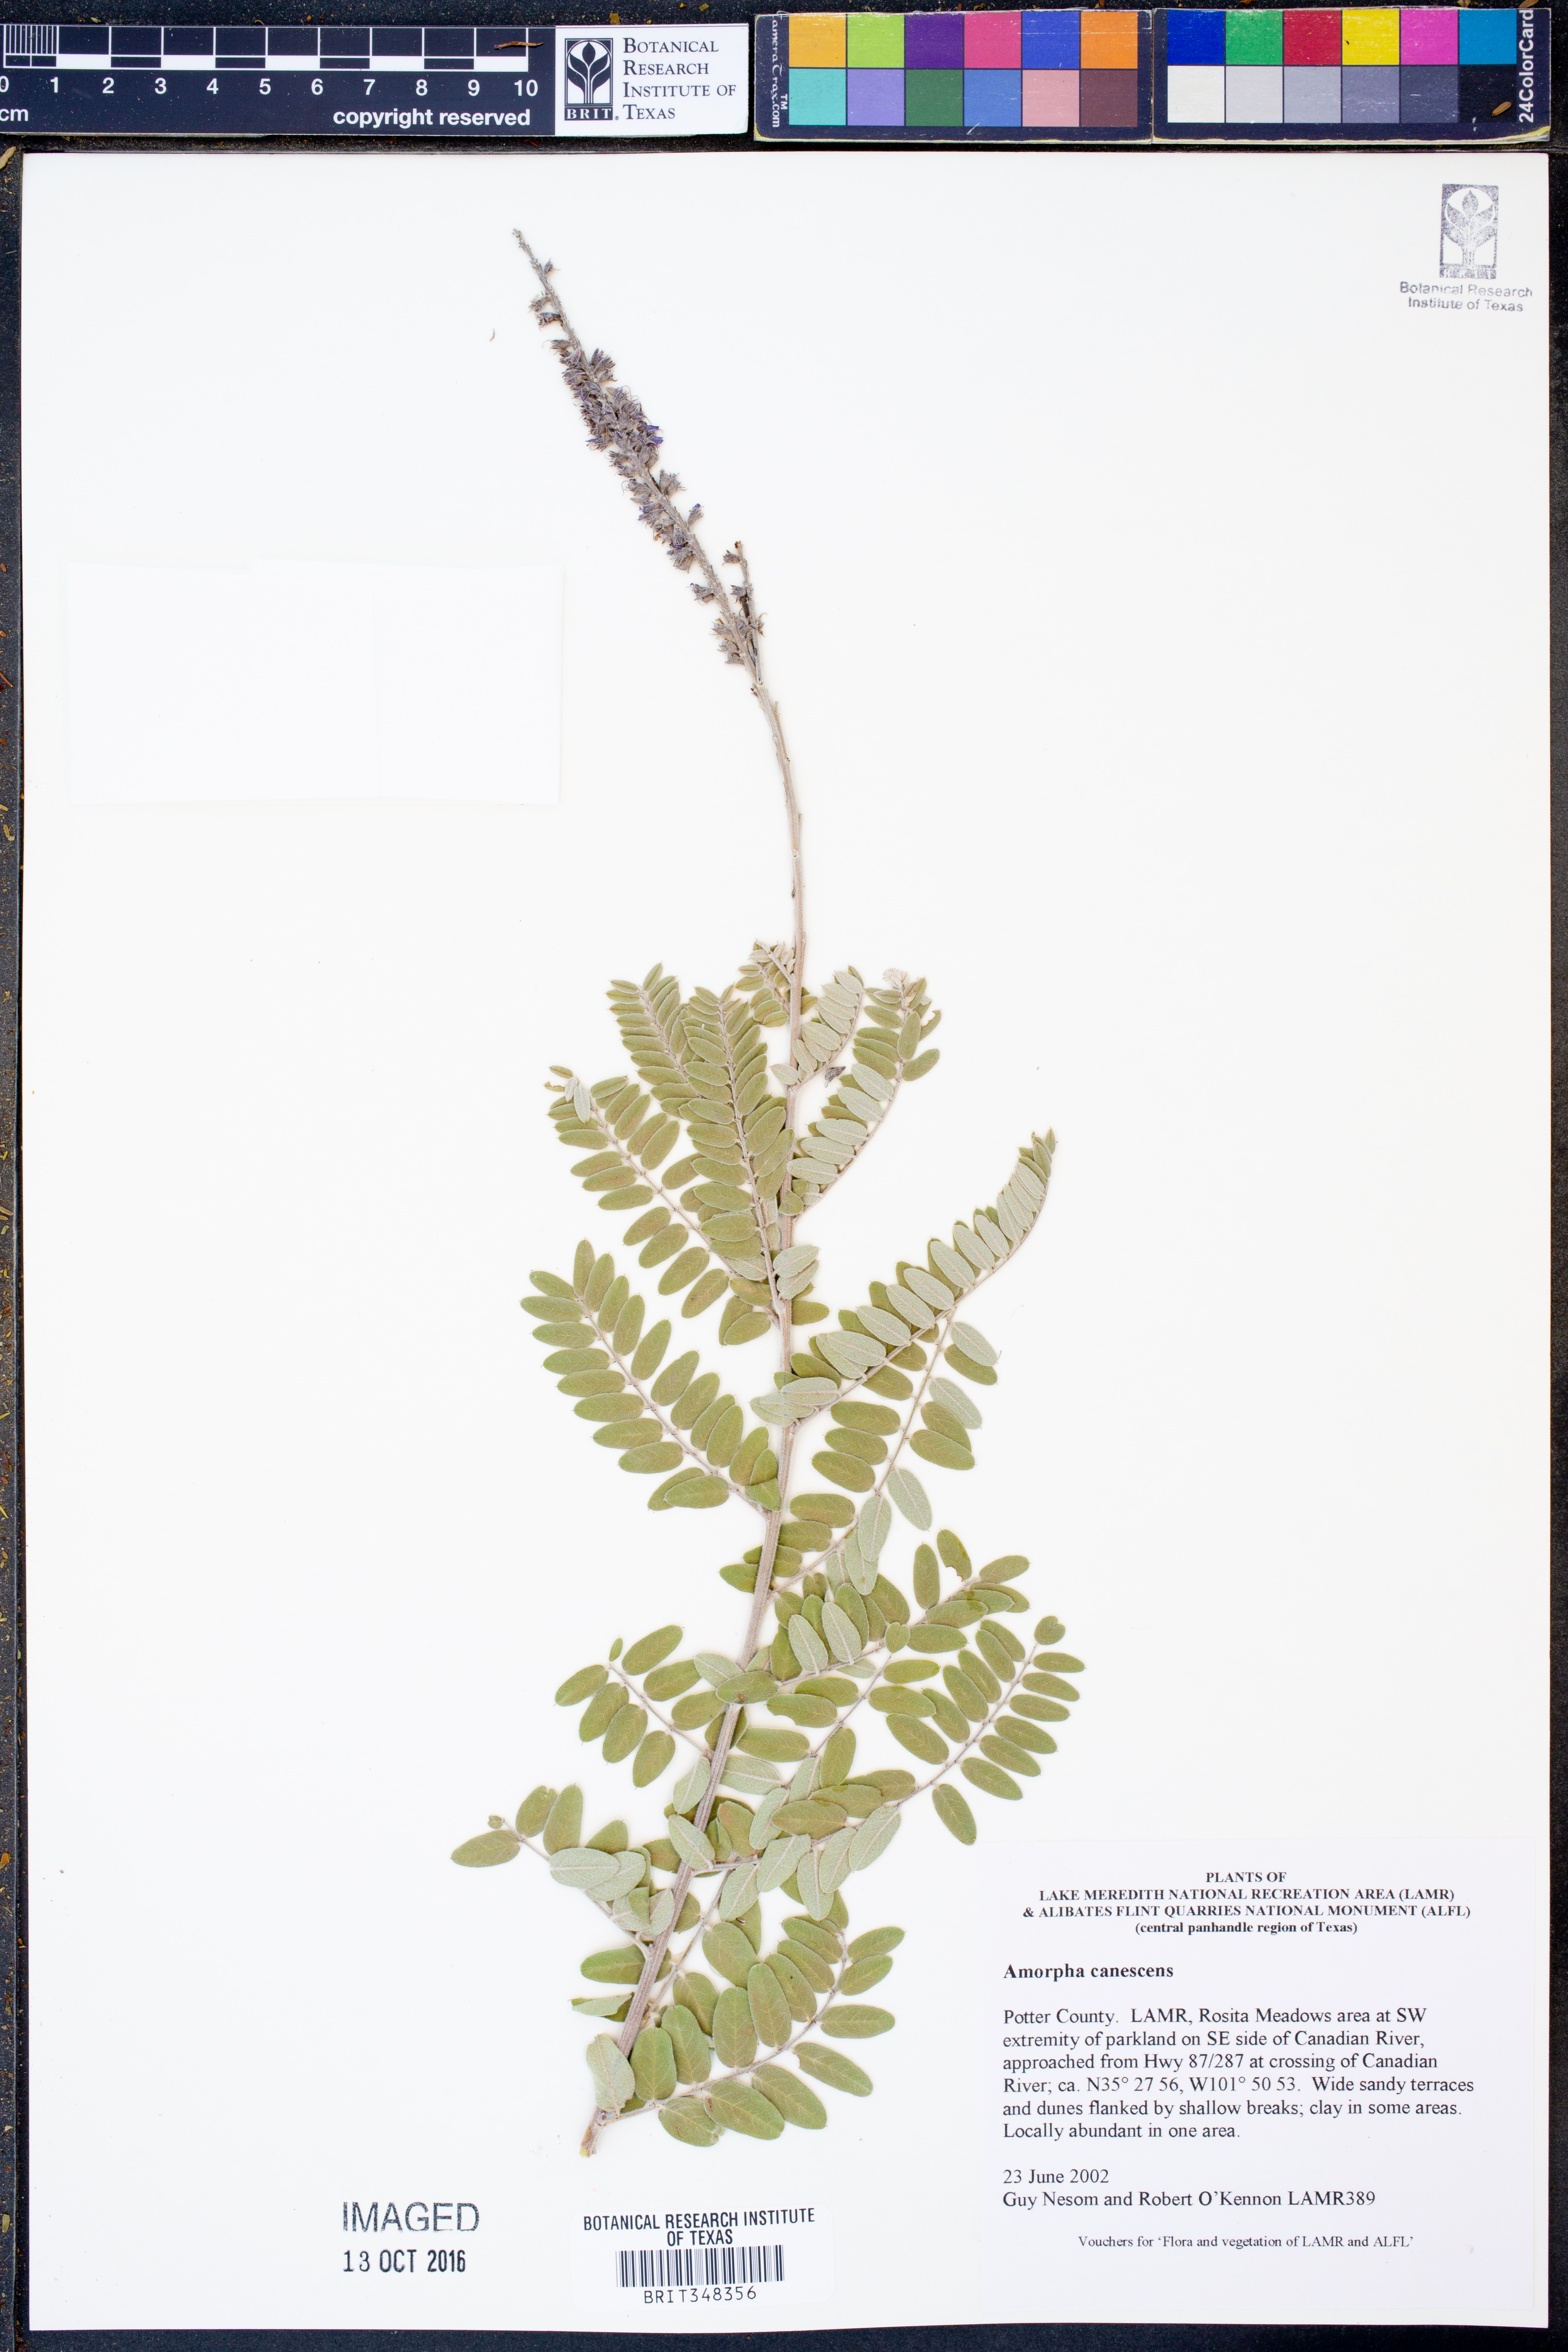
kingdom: Plantae
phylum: Tracheophyta
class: Magnoliopsida
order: Fabales
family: Fabaceae
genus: Amorpha
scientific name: Amorpha canescens
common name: Leadplant
